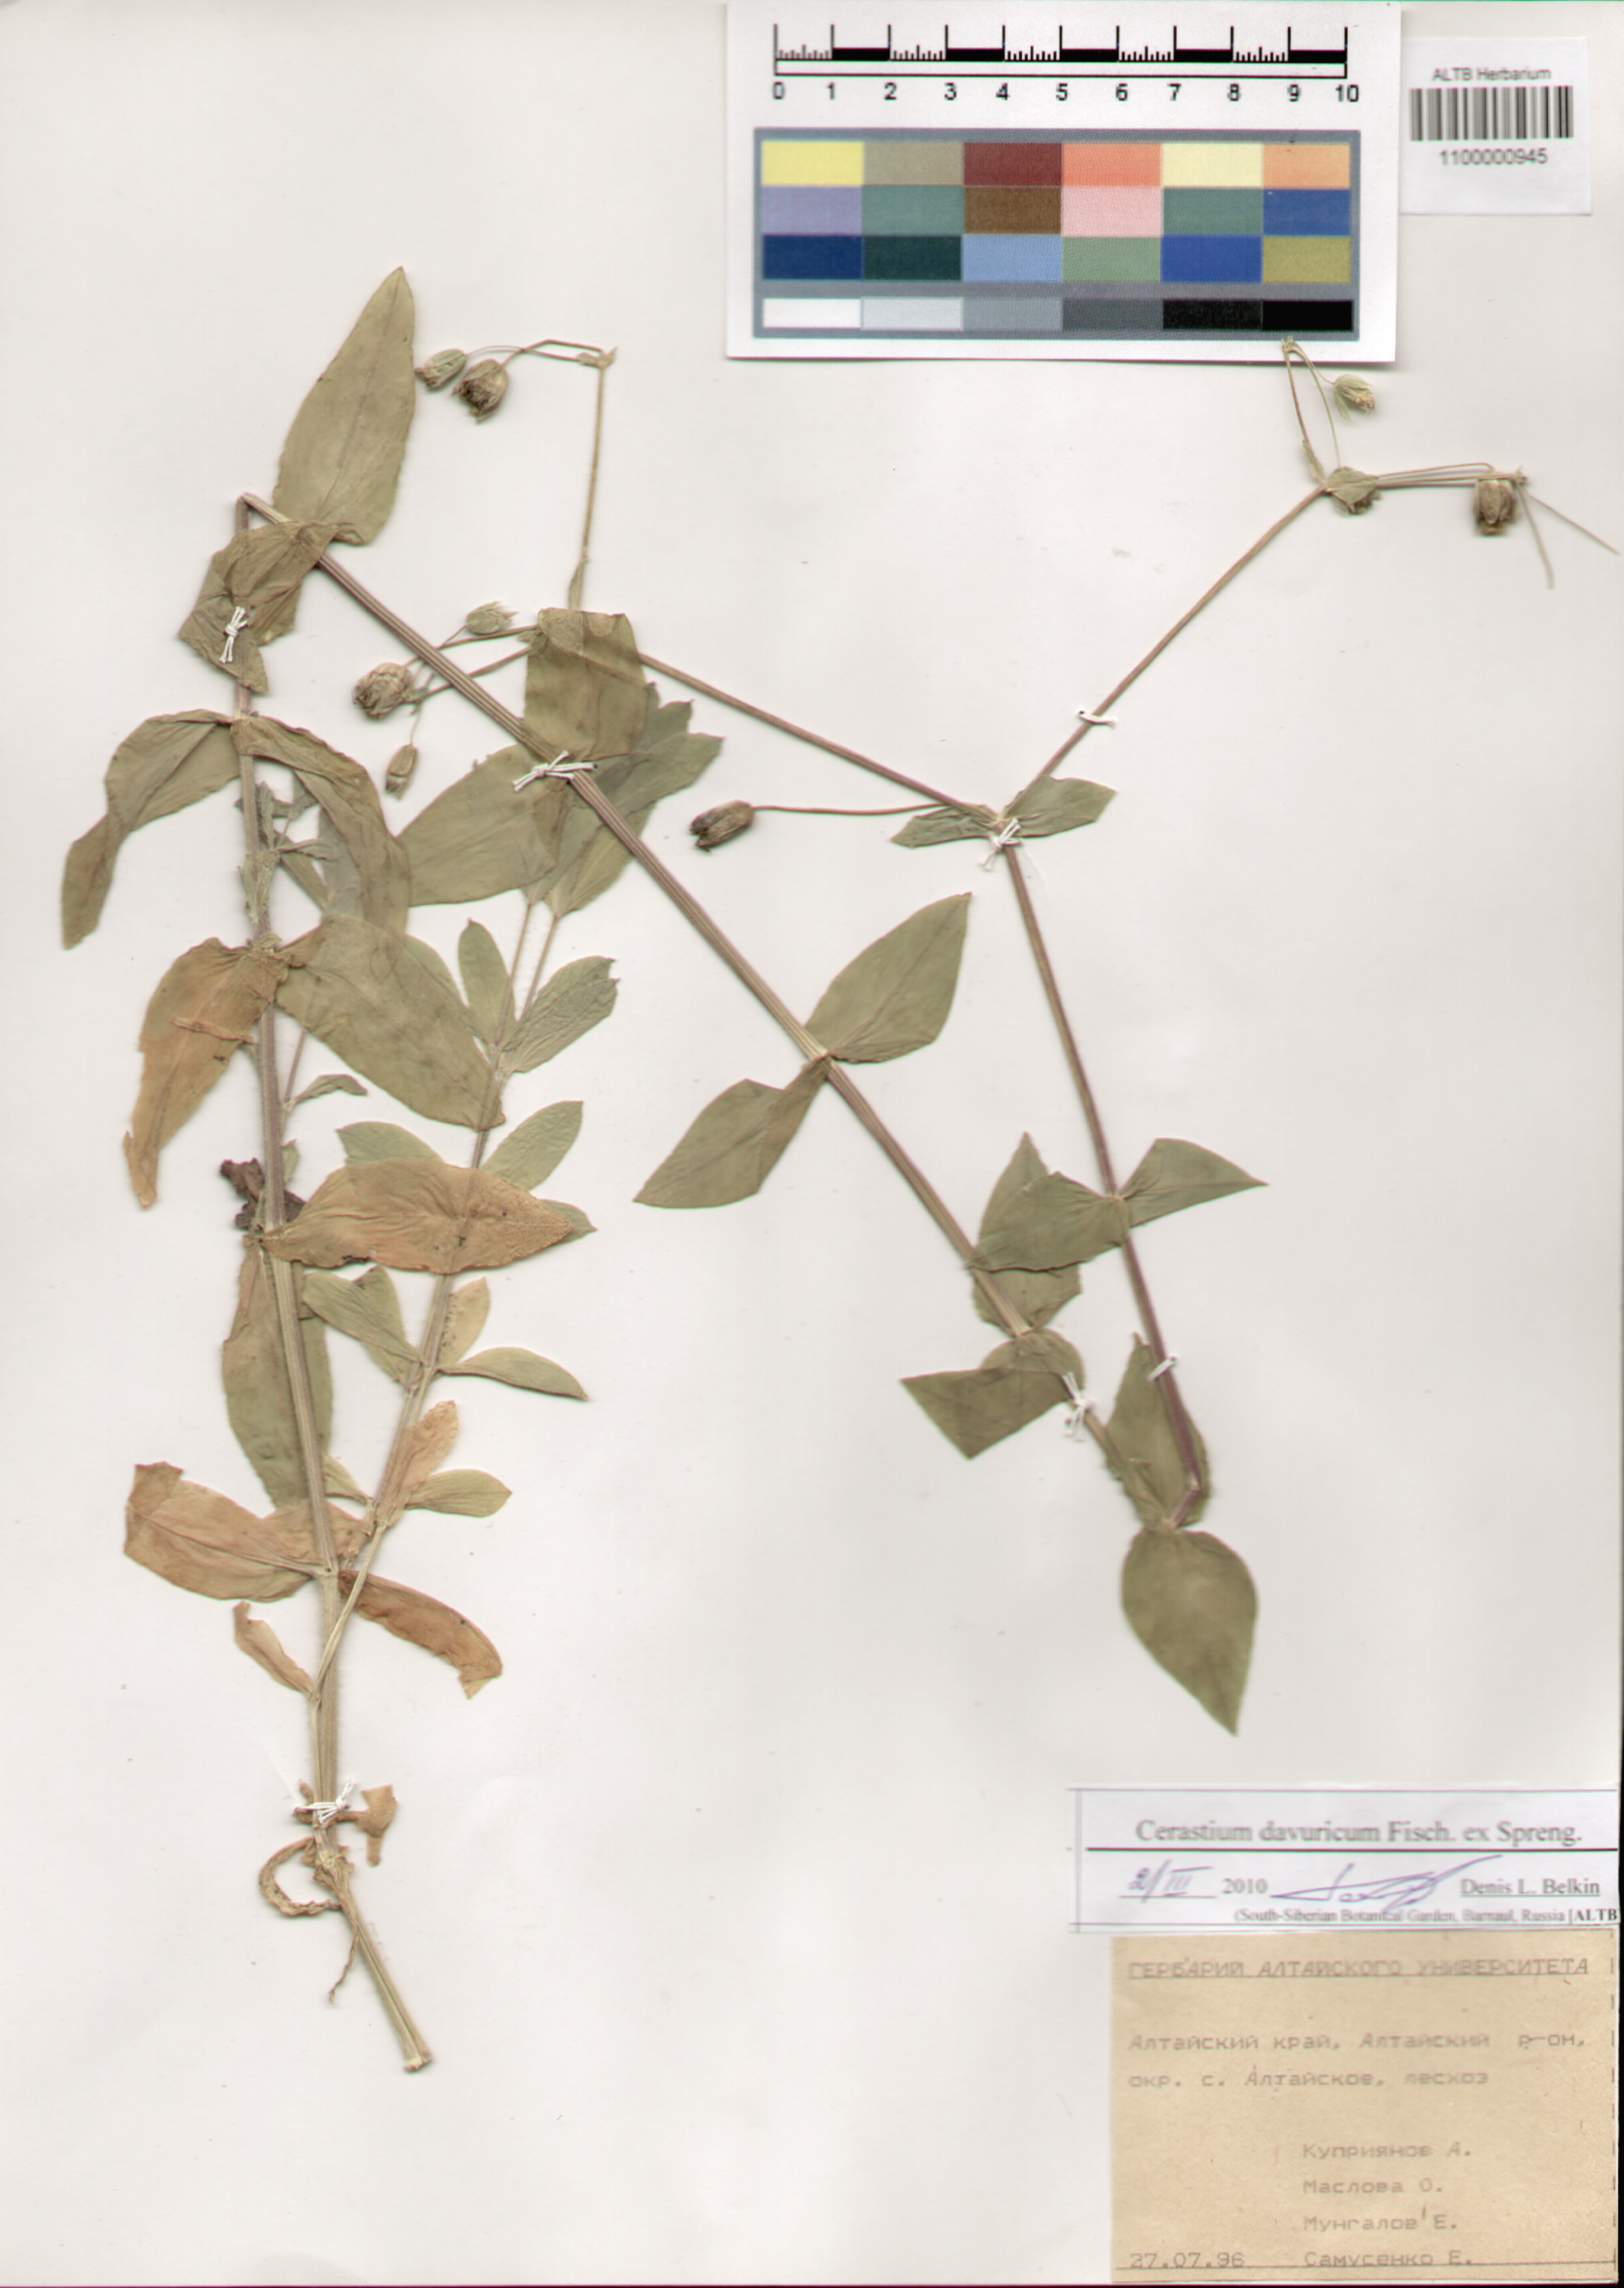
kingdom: Plantae
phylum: Tracheophyta
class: Magnoliopsida
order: Caryophyllales
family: Caryophyllaceae
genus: Dichodon
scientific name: Dichodon davuricum
